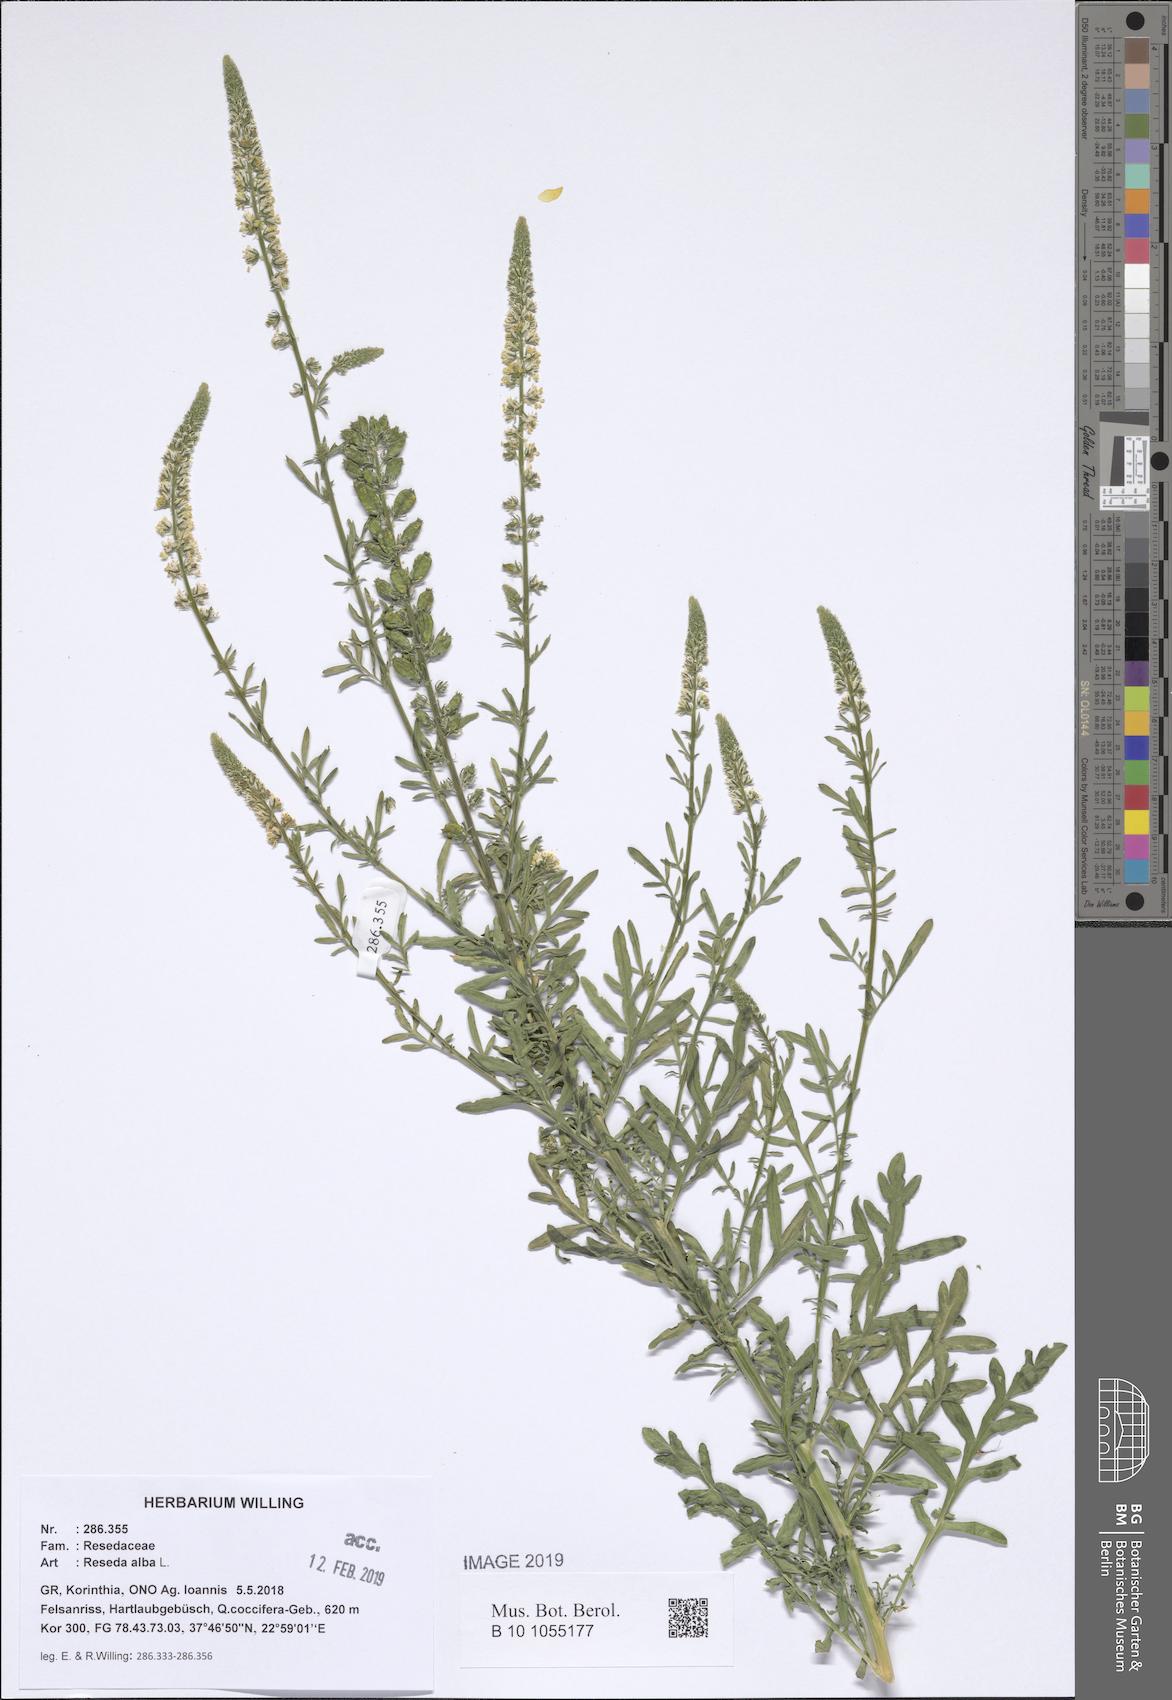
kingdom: Plantae
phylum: Tracheophyta
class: Magnoliopsida
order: Brassicales
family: Resedaceae
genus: Reseda
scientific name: Reseda alba
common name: White mignonette
